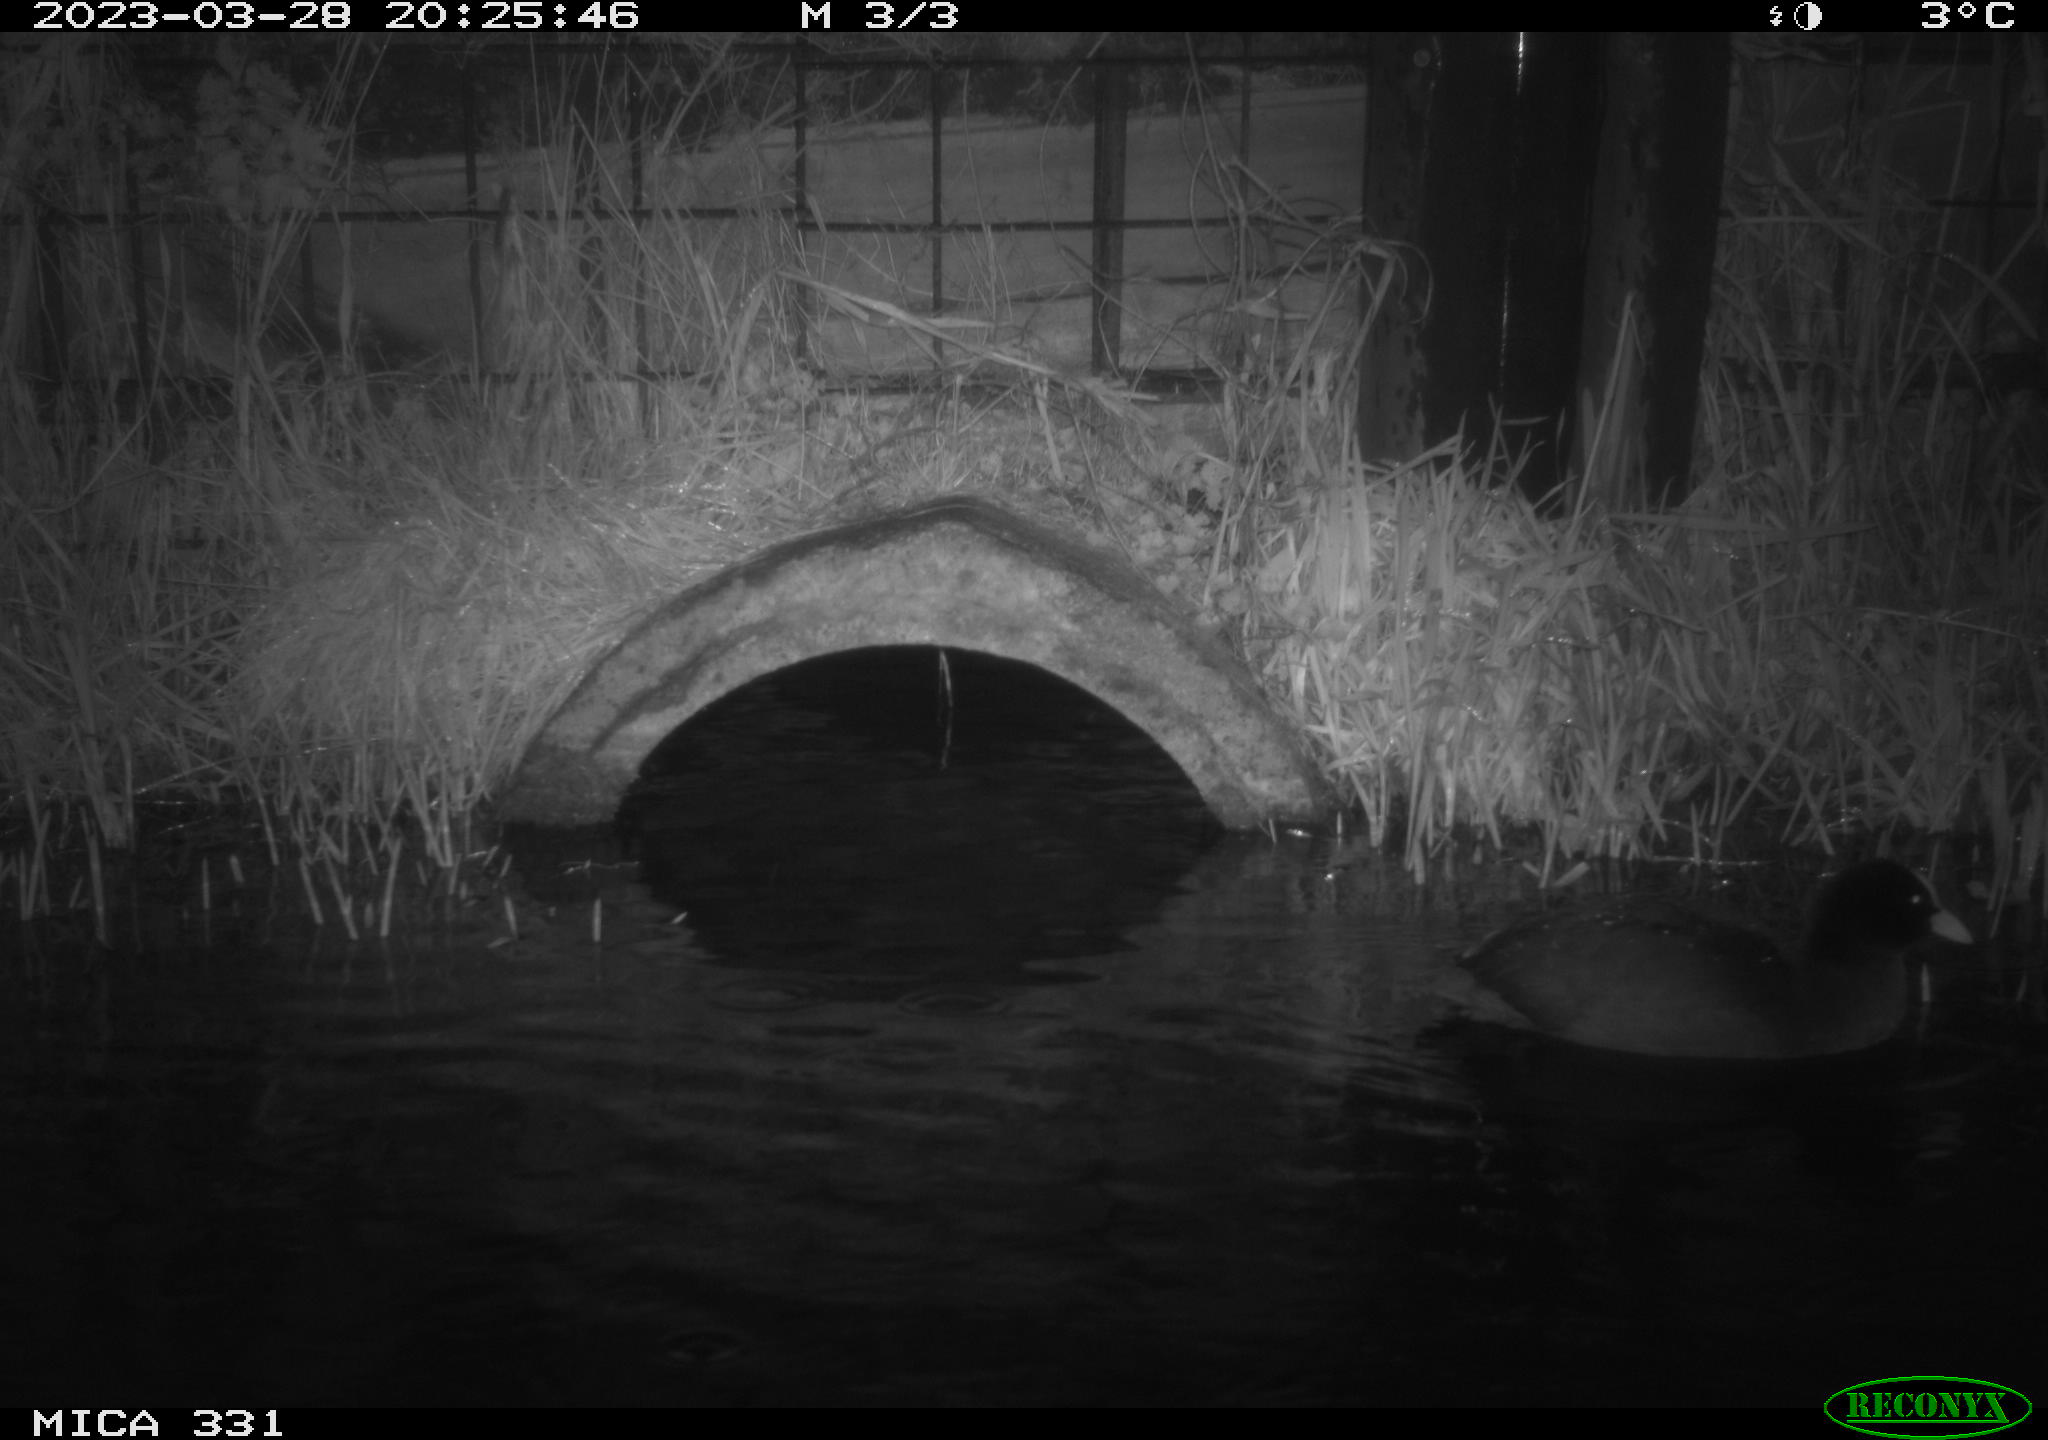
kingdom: Animalia
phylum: Chordata
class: Aves
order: Gruiformes
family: Rallidae
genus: Gallinula
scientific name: Gallinula chloropus
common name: Common moorhen
